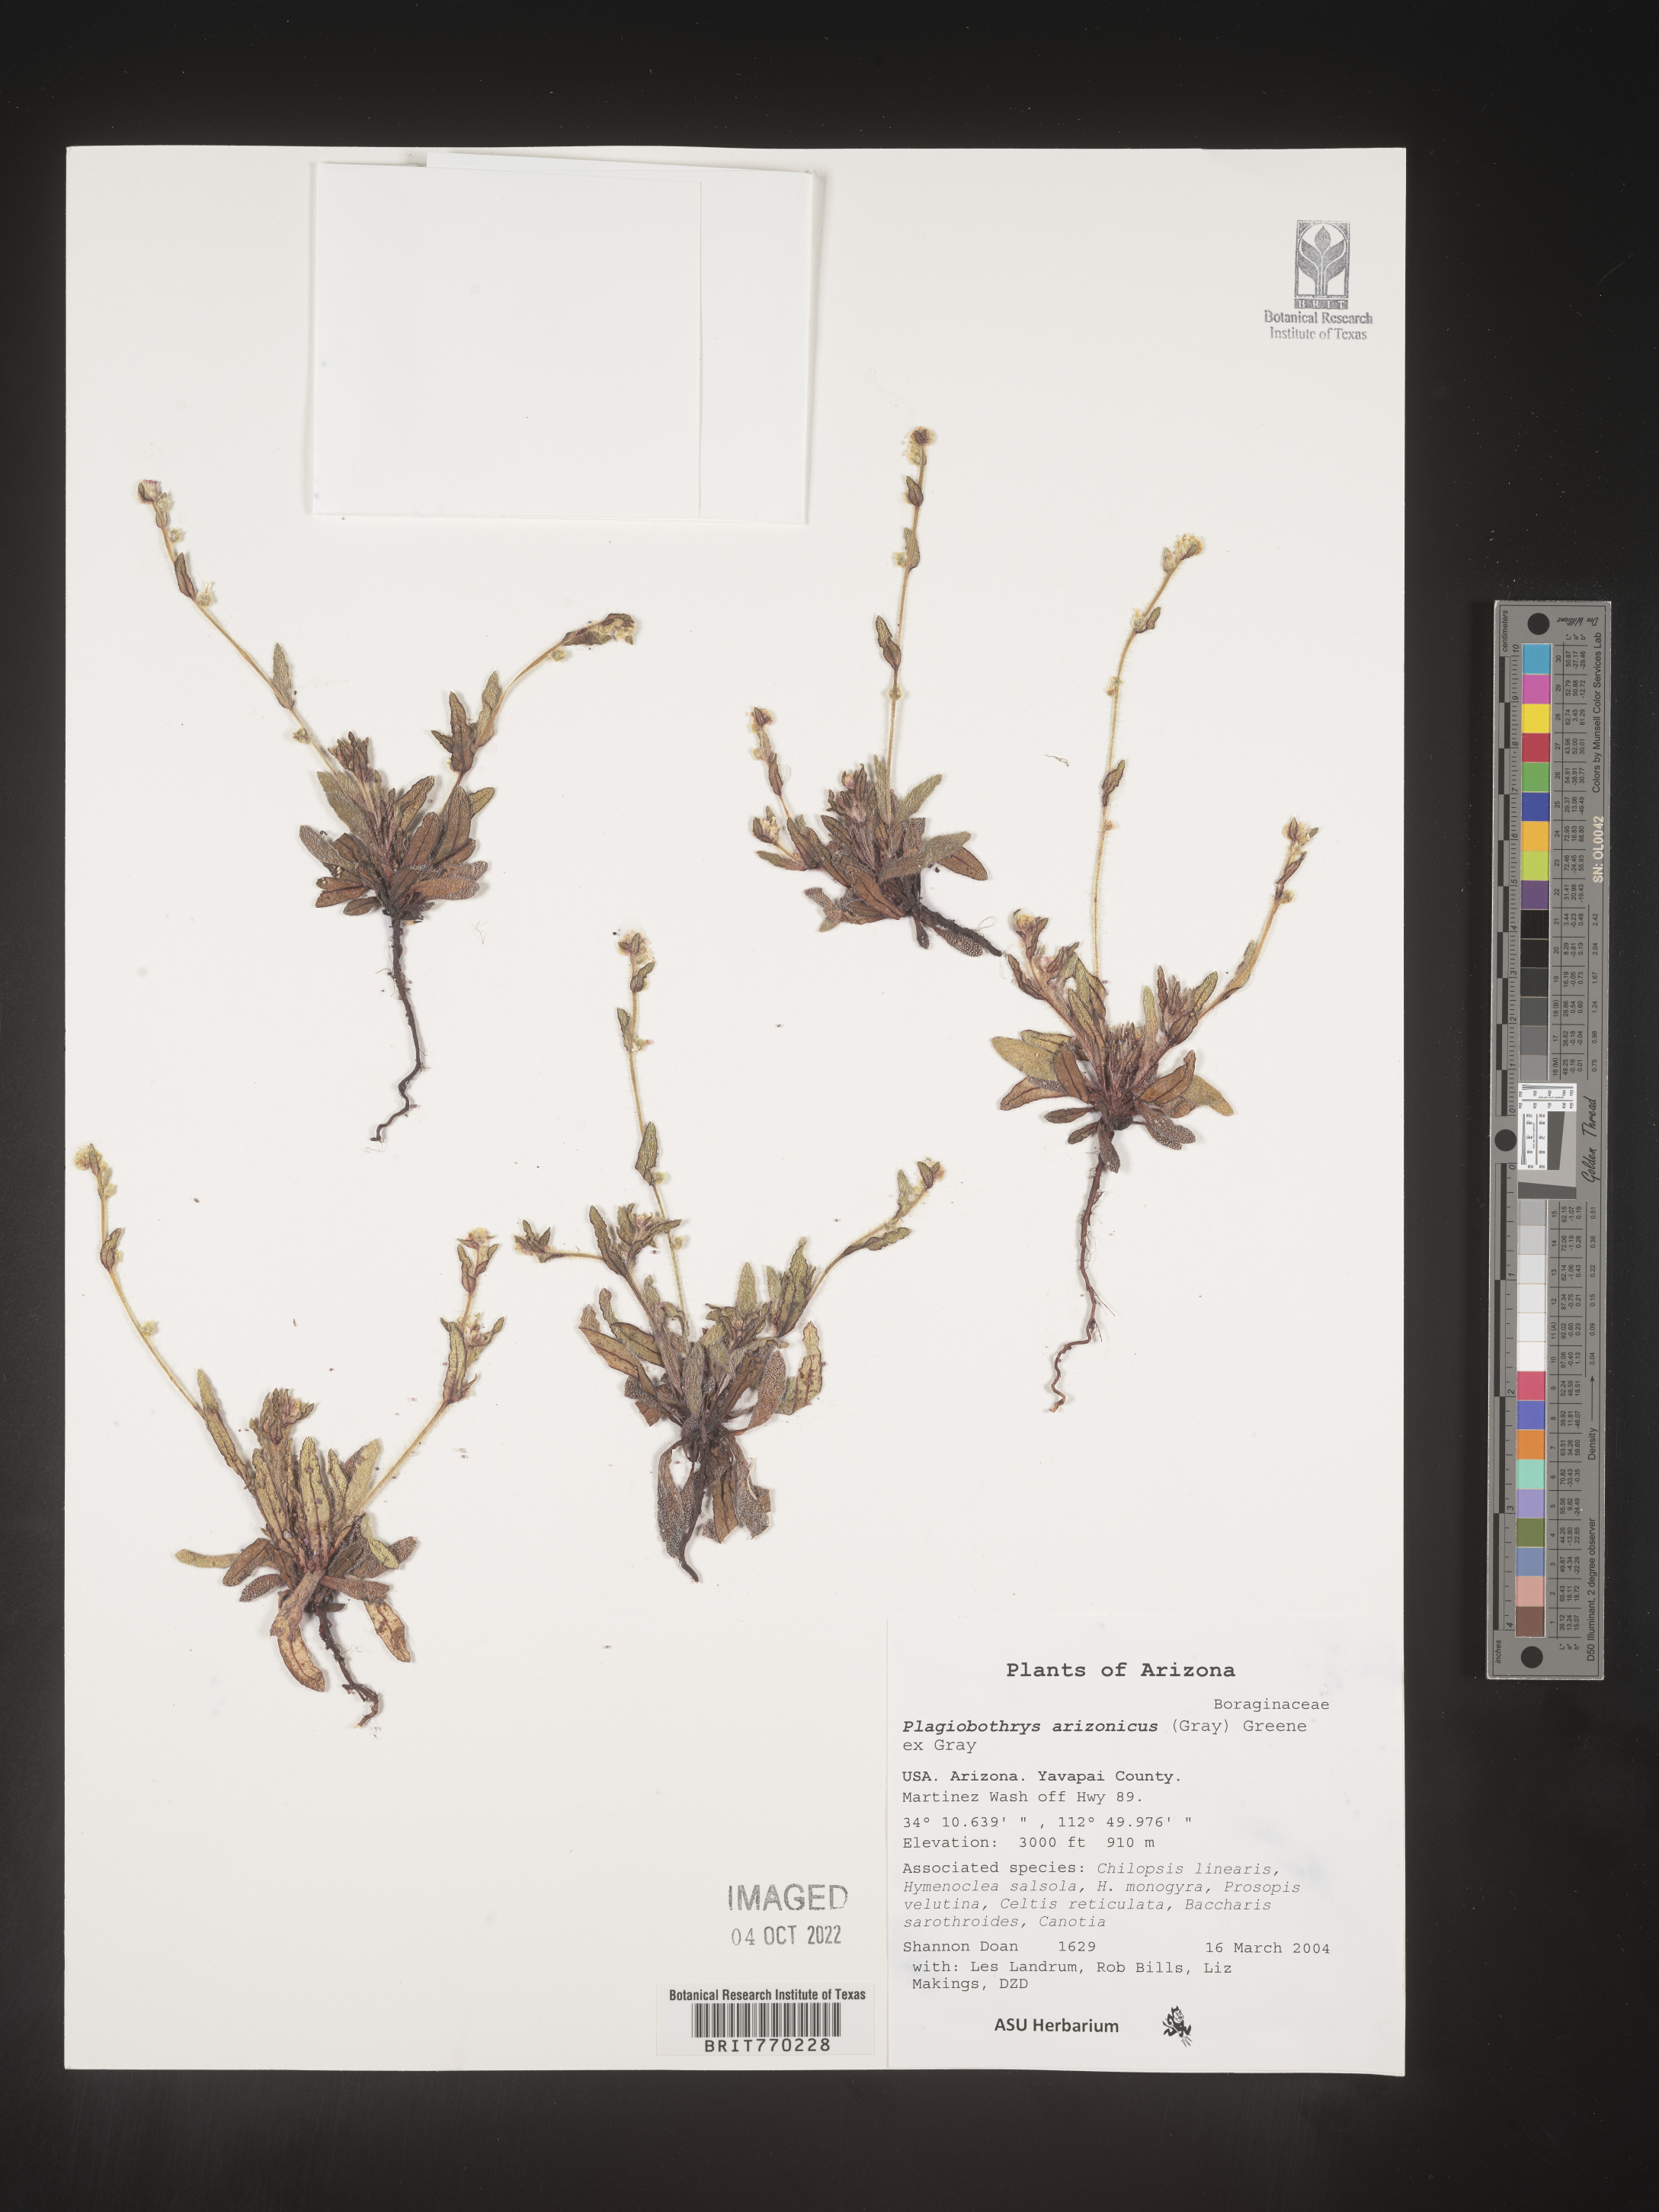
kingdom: Plantae
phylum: Tracheophyta
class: Magnoliopsida
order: Boraginales
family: Boraginaceae
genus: Plagiobothrys
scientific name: Plagiobothrys
